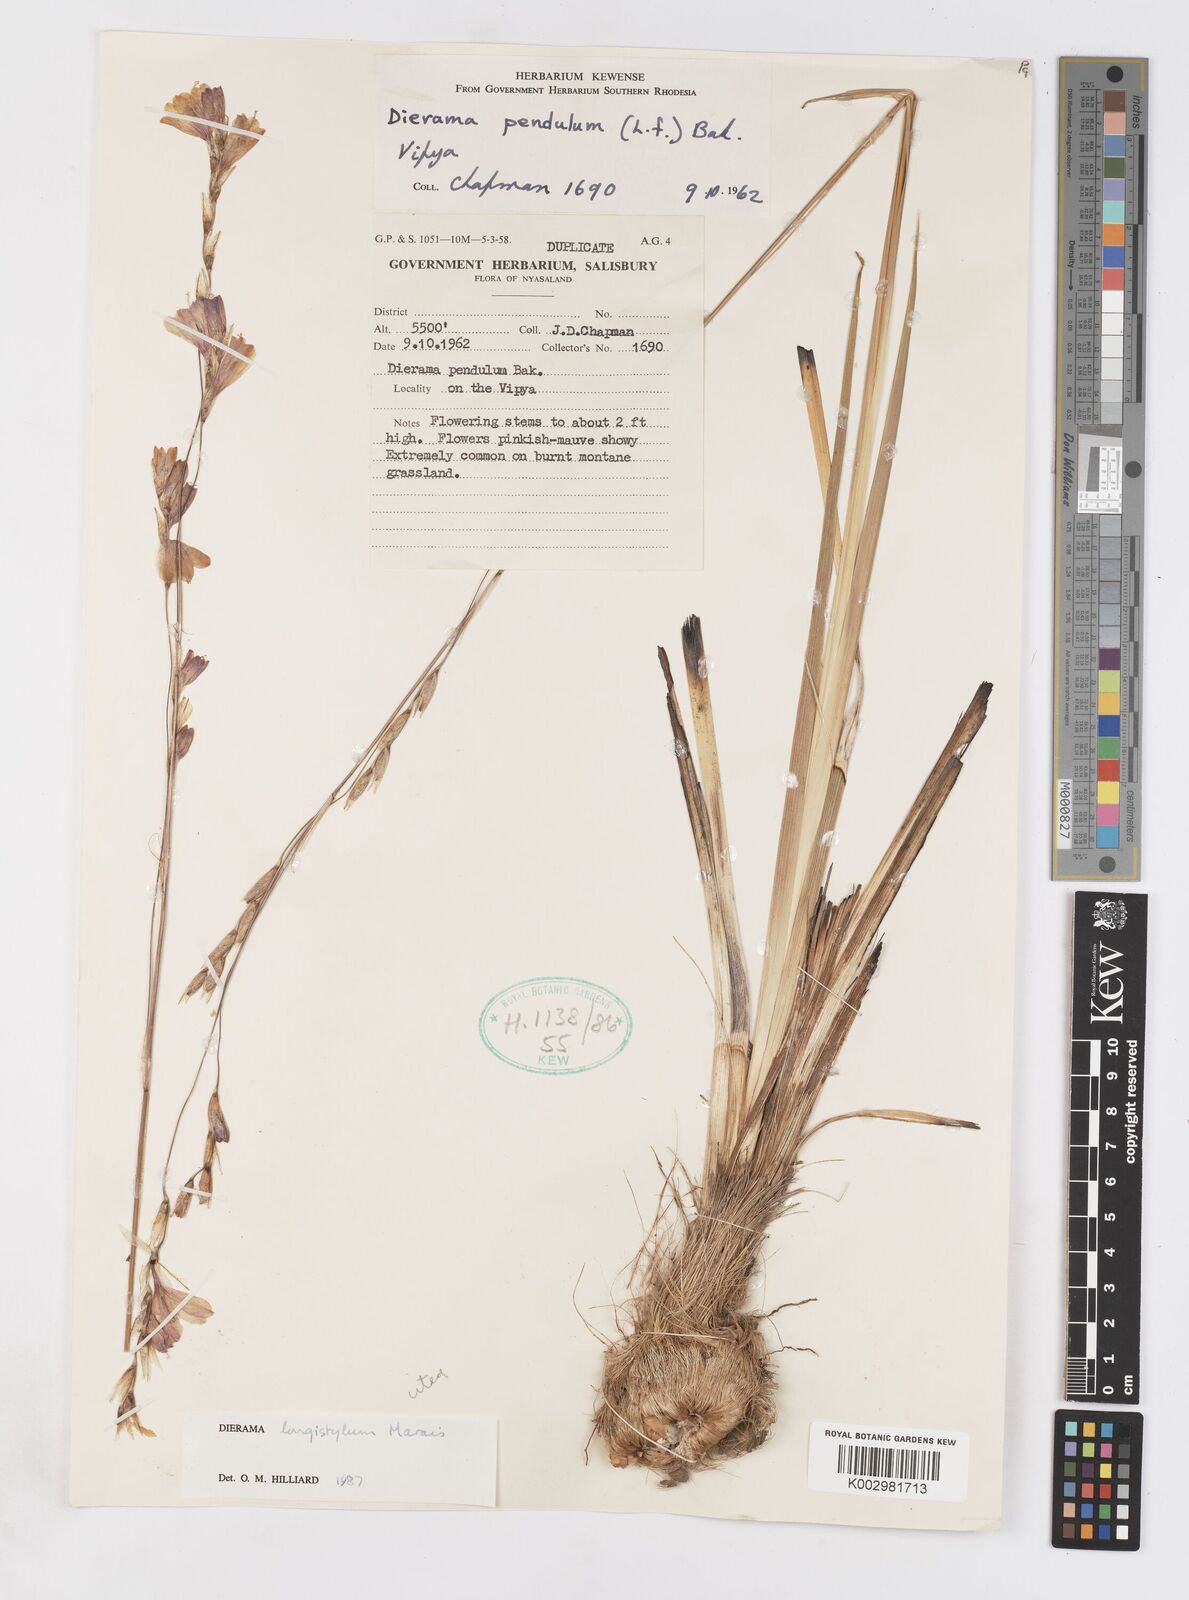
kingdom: Plantae
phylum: Tracheophyta
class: Liliopsida
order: Asparagales
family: Iridaceae
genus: Dierama
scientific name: Dierama longistylum
